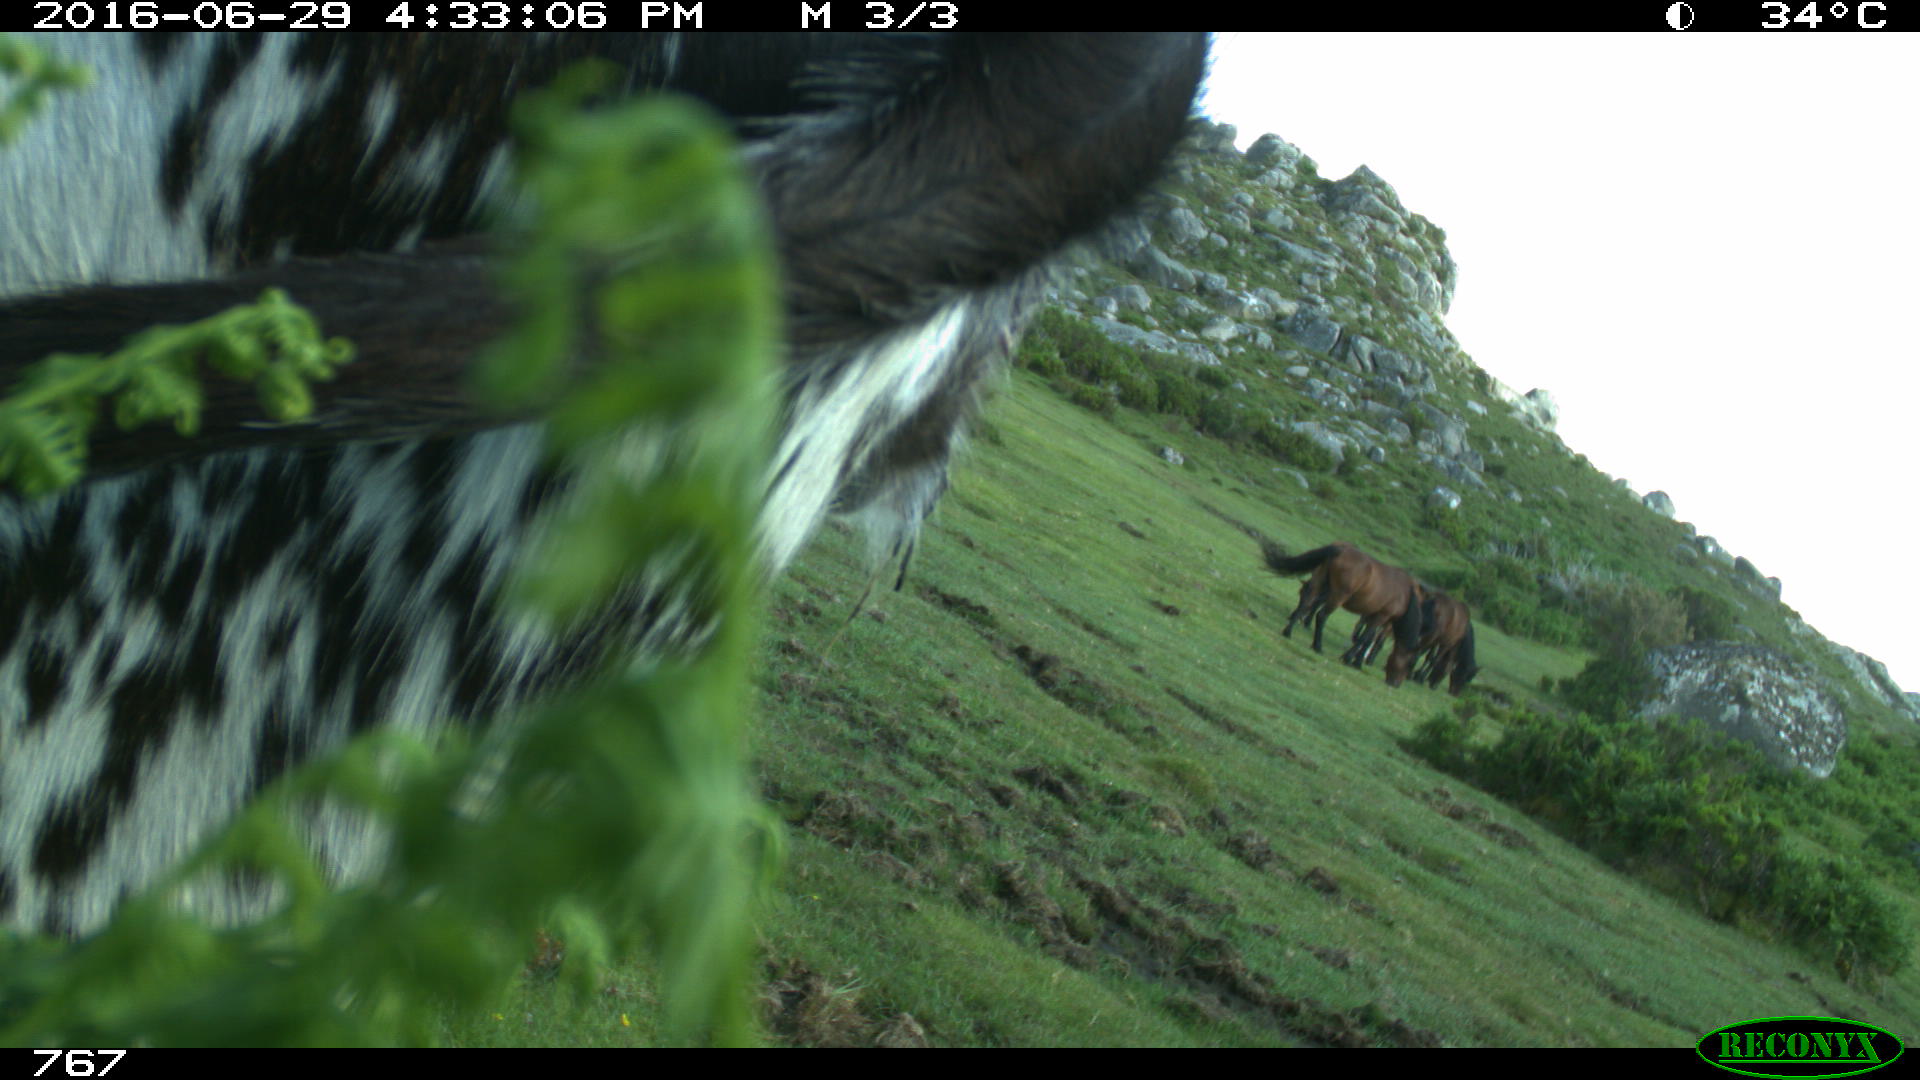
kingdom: Animalia
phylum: Chordata
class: Mammalia
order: Perissodactyla
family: Equidae
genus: Equus
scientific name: Equus caballus
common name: Horse
